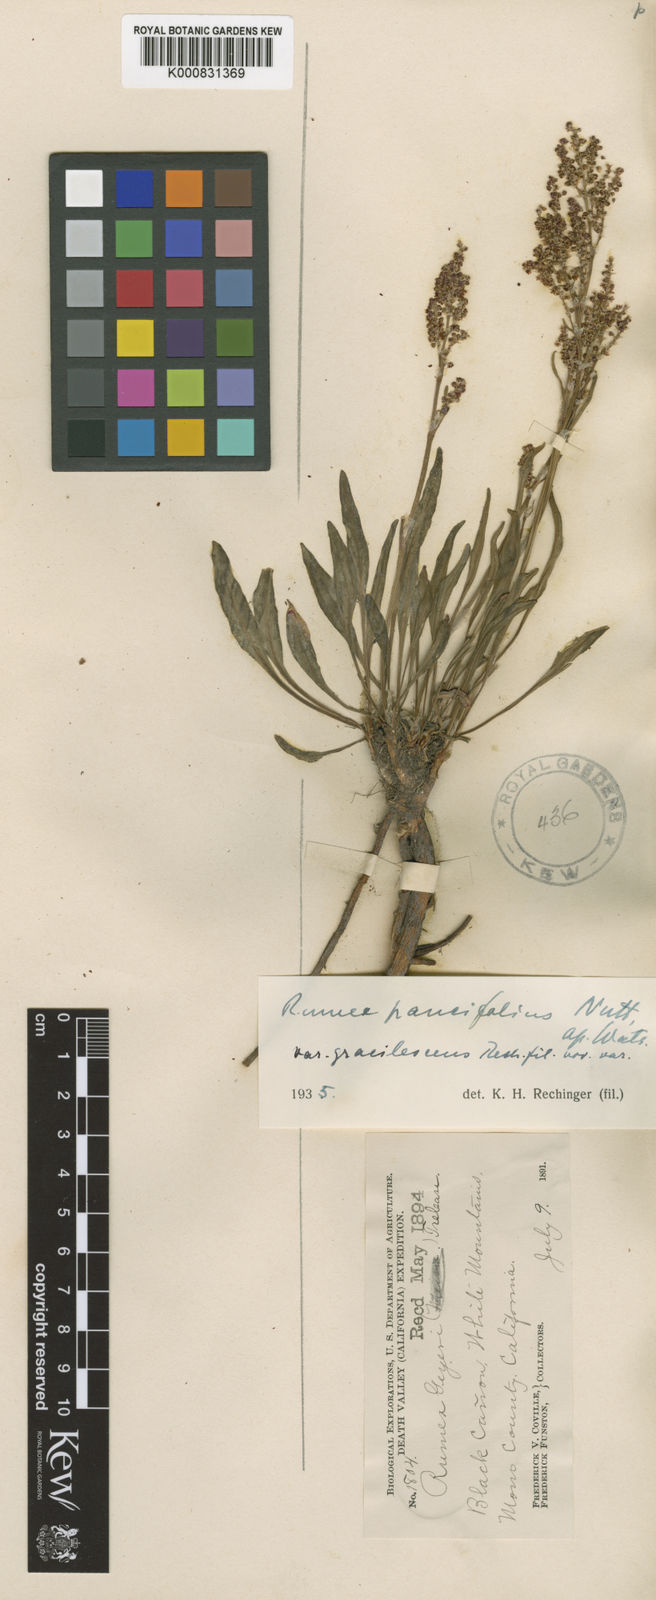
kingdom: Plantae
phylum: Tracheophyta
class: Magnoliopsida
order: Caryophyllales
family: Polygonaceae
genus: Rumex
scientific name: Rumex paucifolius
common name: Alpine sheep sorrel
